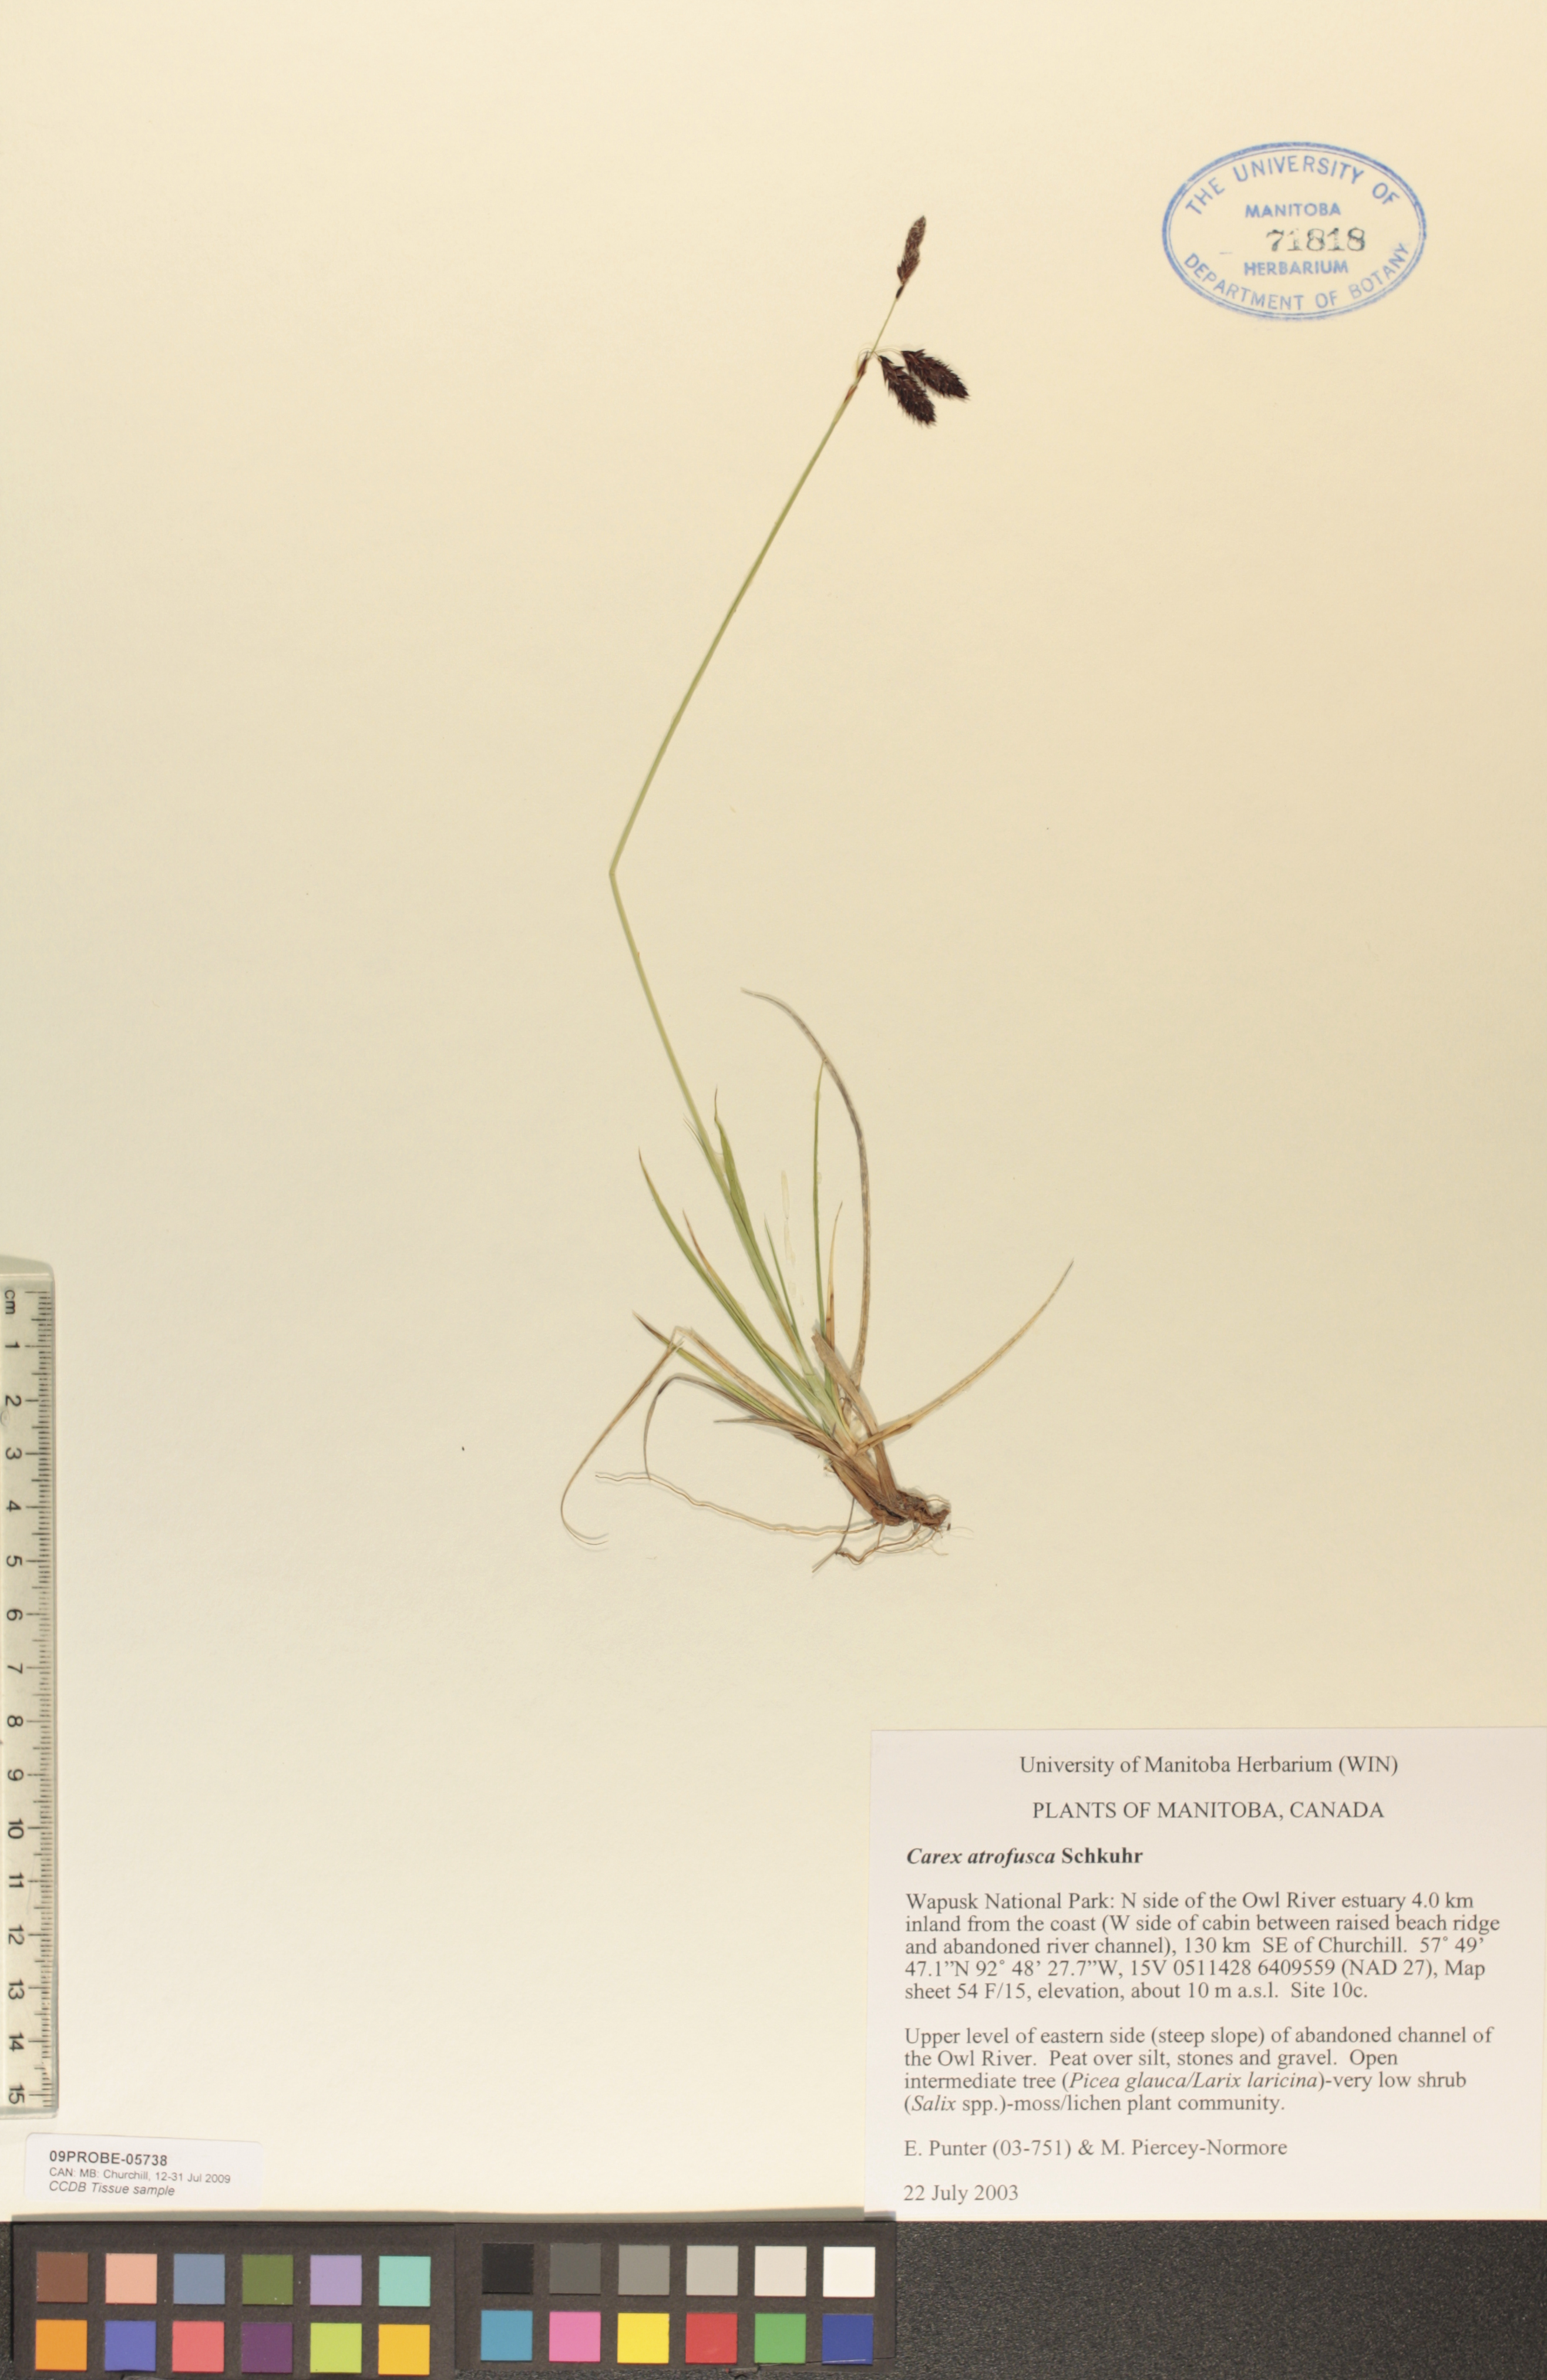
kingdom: Plantae
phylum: Tracheophyta
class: Liliopsida
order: Poales
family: Cyperaceae
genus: Carex
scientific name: Carex pichinchensis
